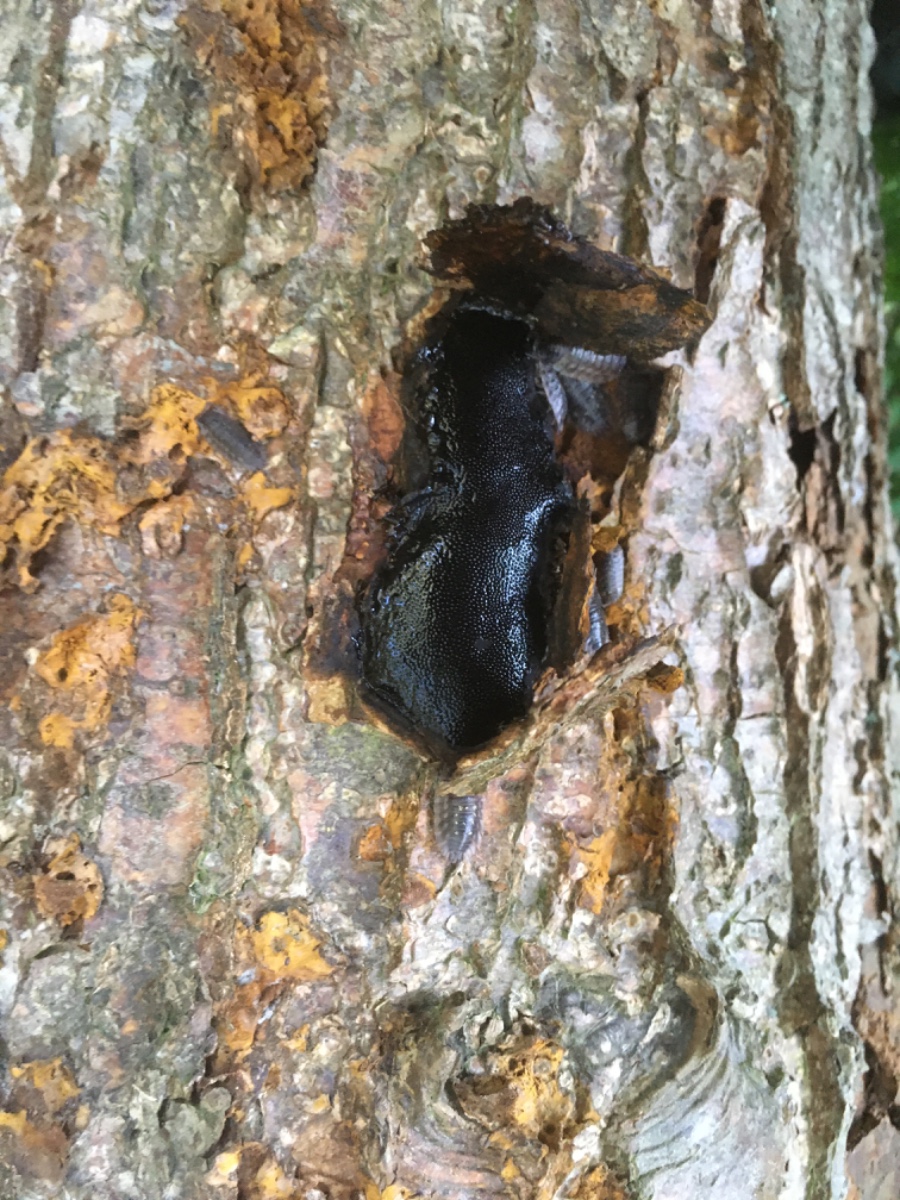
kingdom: Fungi
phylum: Ascomycota
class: Sordariomycetes
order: Boliniales
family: Boliniaceae
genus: Camarops
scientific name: Camarops polysperma
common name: elle-kulsnegl
